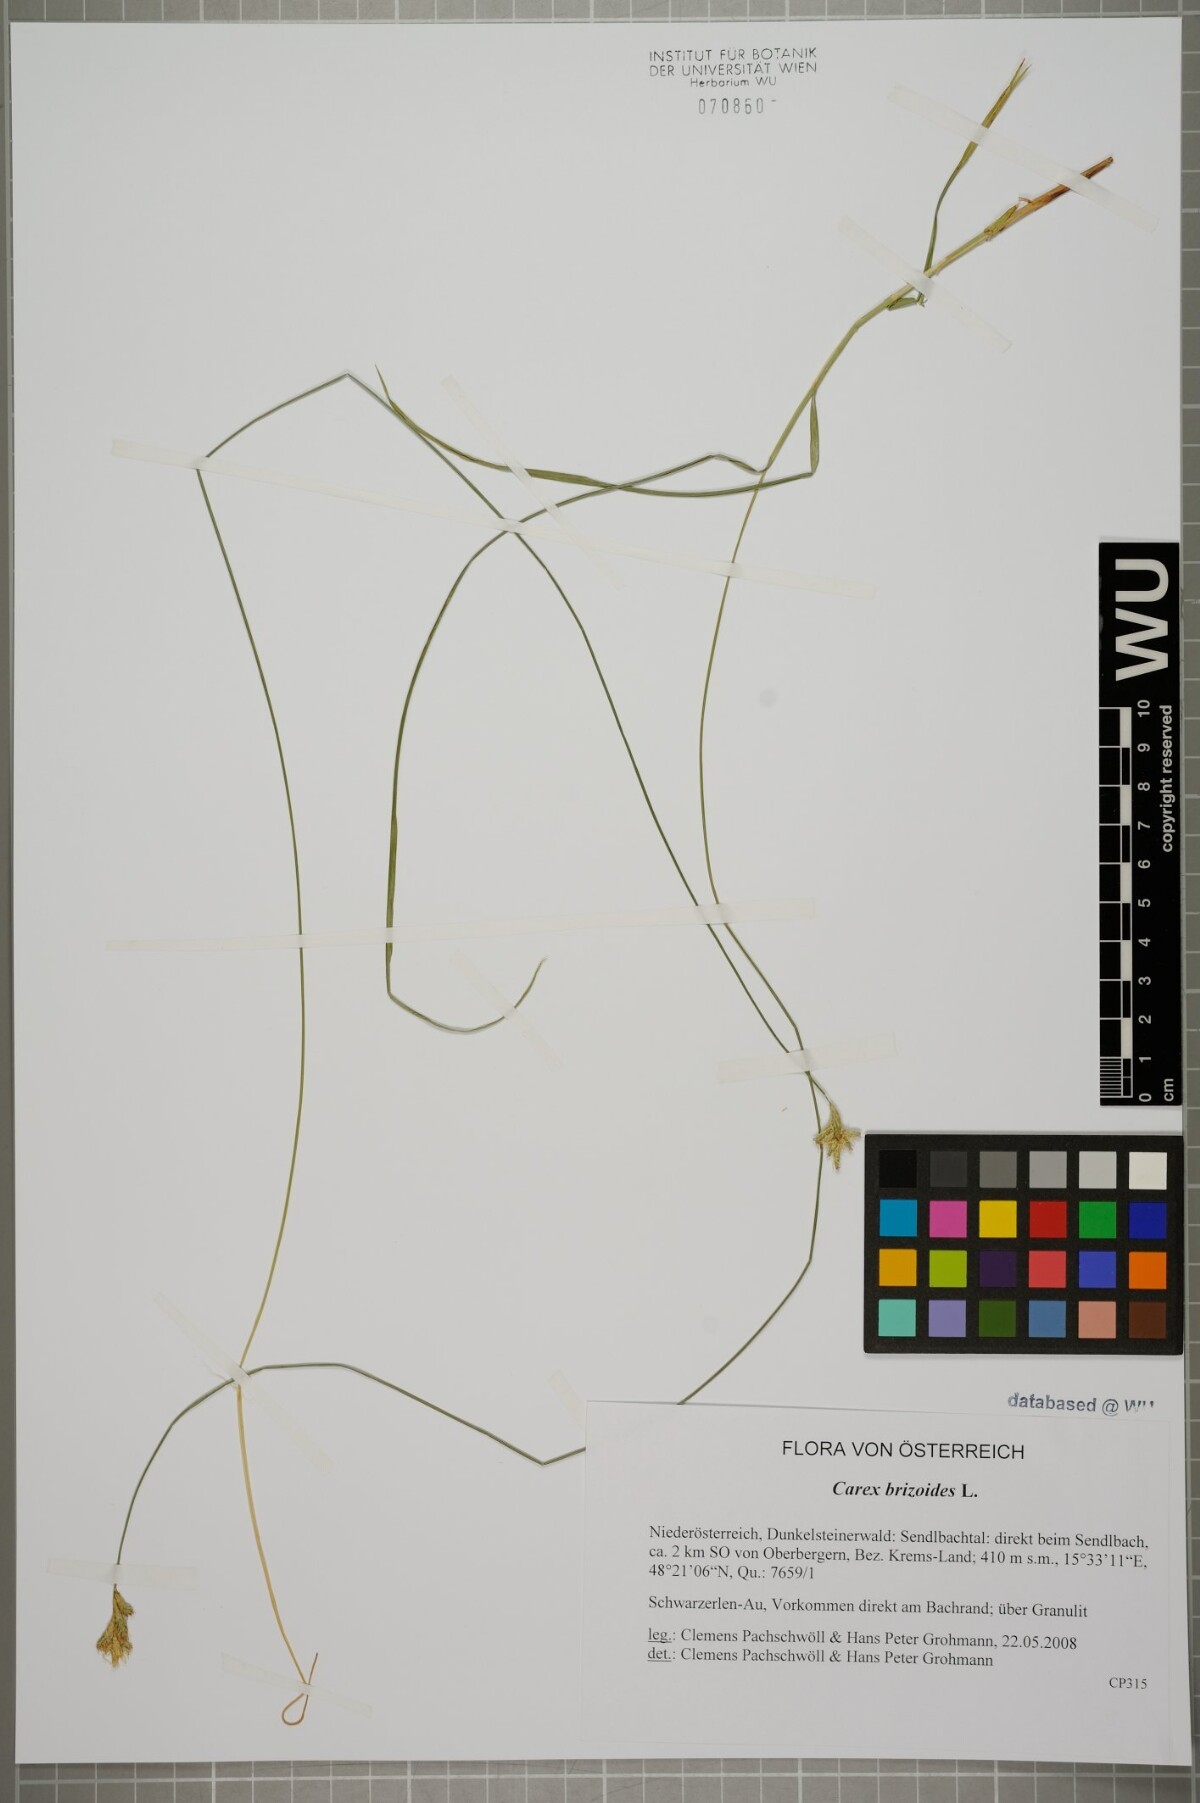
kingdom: Plantae
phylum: Tracheophyta
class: Liliopsida
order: Poales
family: Cyperaceae
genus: Carex
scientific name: Carex brizoides
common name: Quaking-grass sedge
